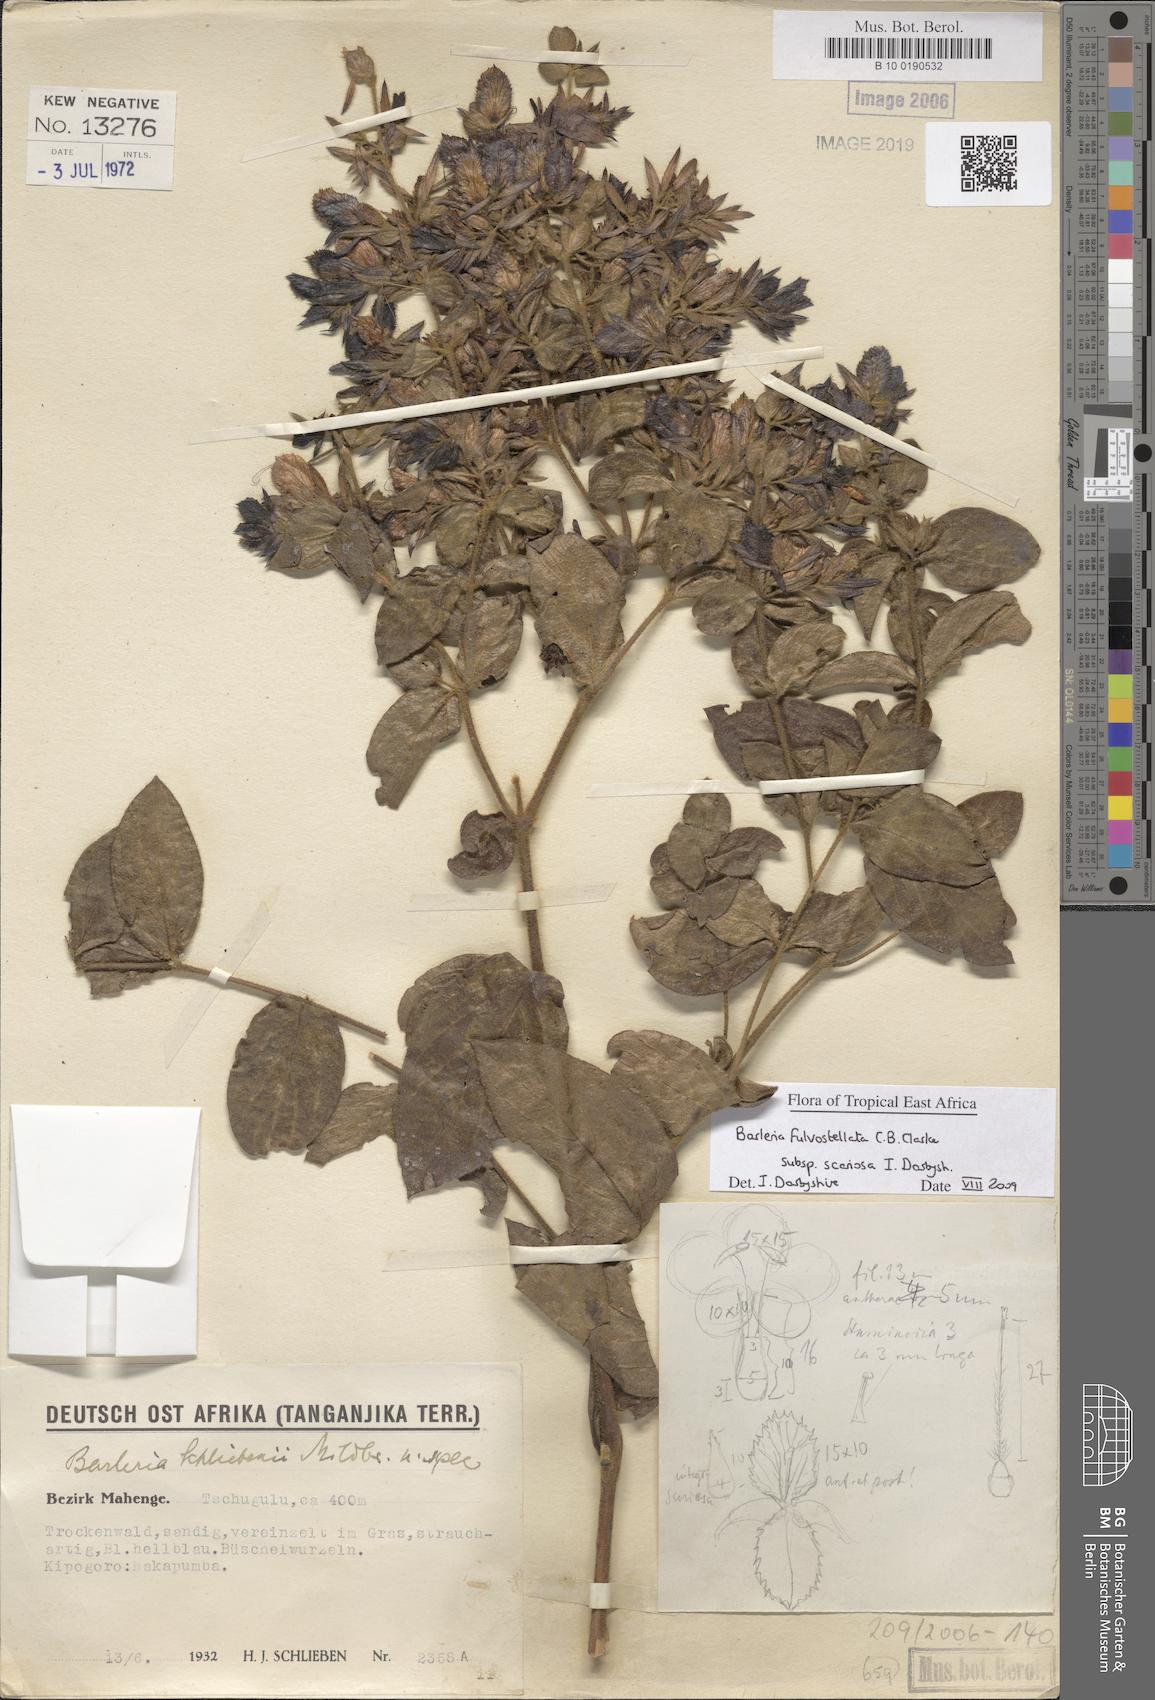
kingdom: Plantae
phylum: Tracheophyta
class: Magnoliopsida
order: Lamiales
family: Acanthaceae
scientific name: Acanthaceae
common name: Acanthaceae
